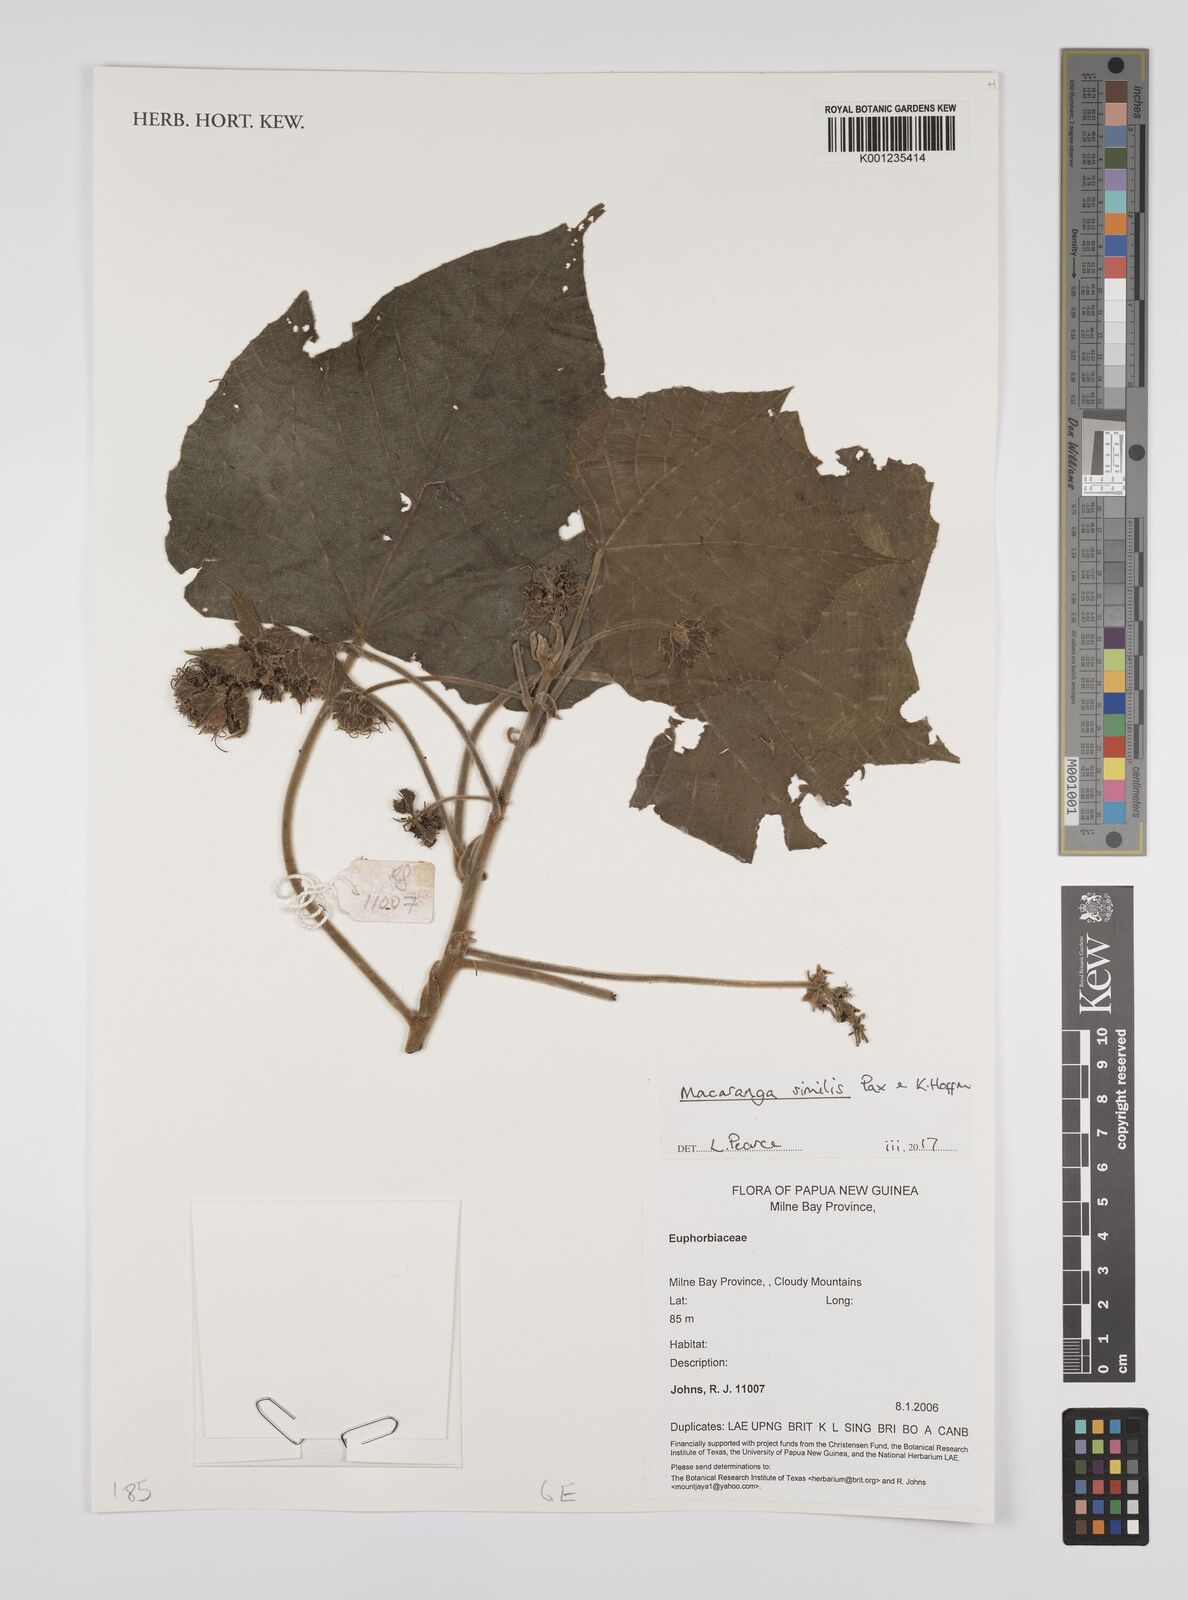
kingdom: Plantae
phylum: Tracheophyta
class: Magnoliopsida
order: Malpighiales
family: Euphorbiaceae
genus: Macaranga
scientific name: Macaranga similis
